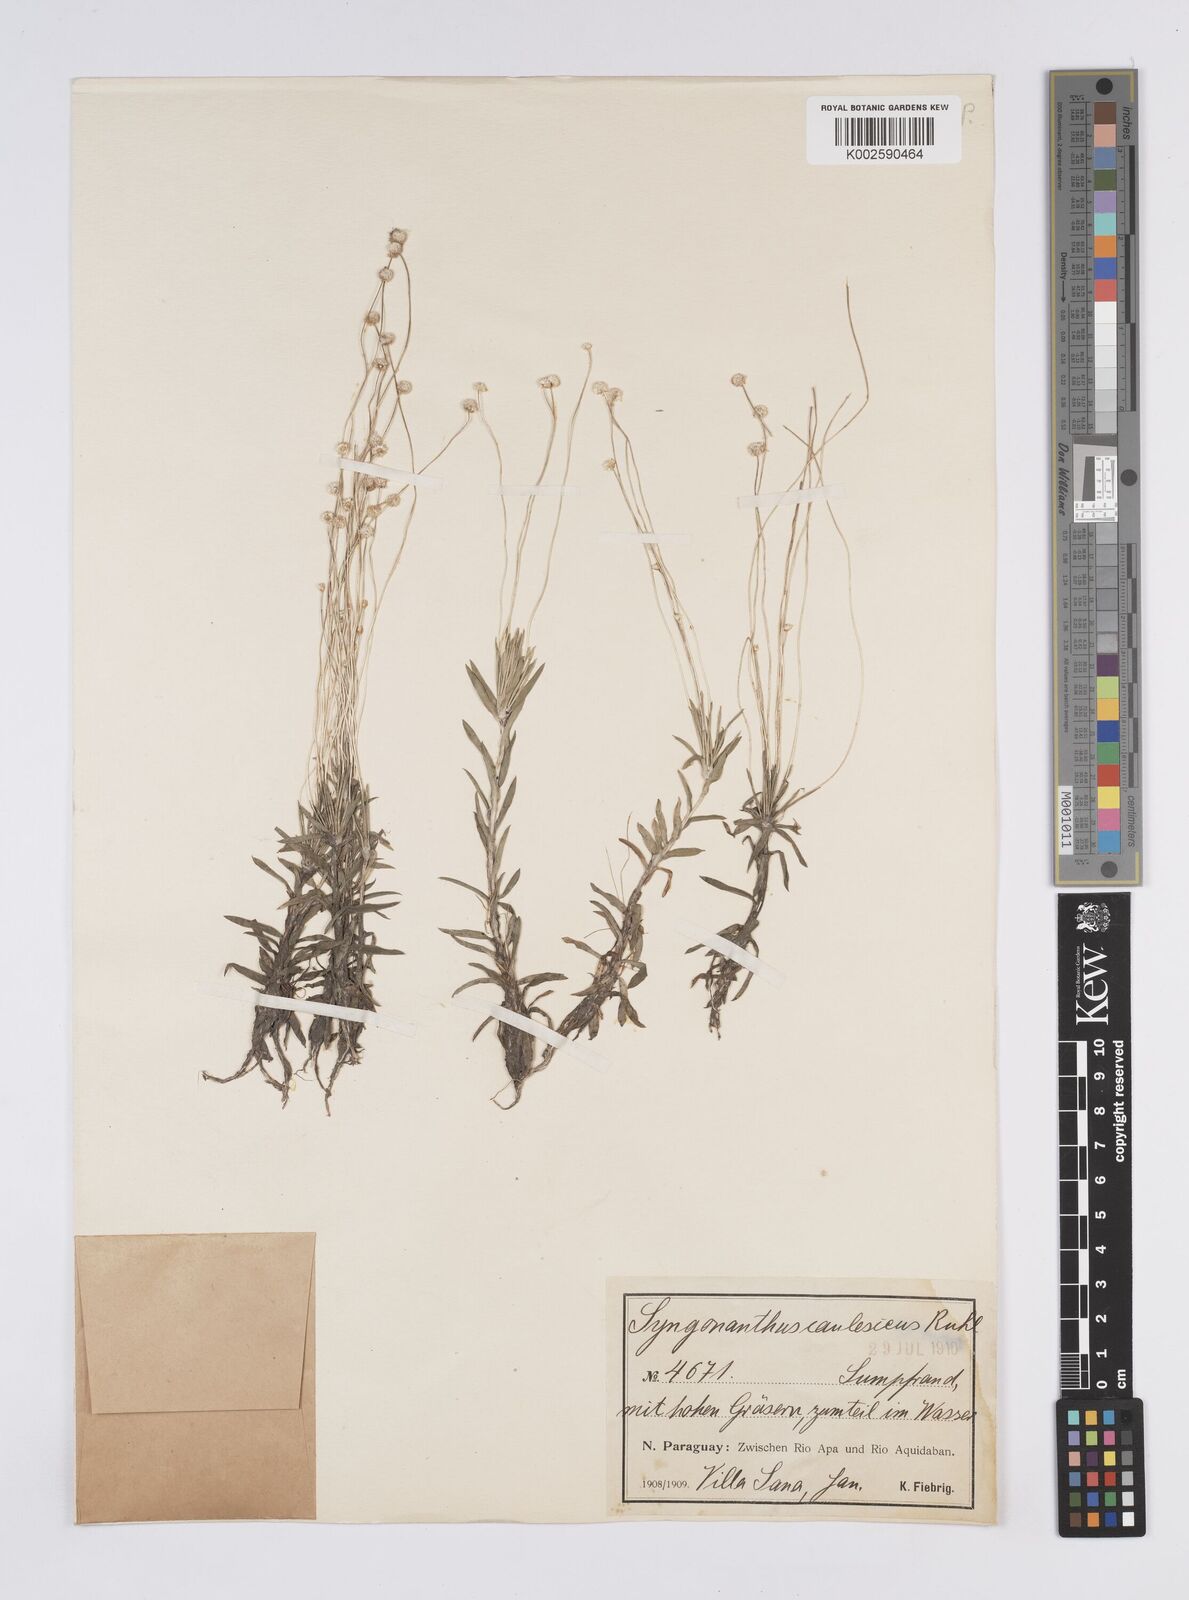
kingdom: Plantae
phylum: Tracheophyta
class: Liliopsida
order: Poales
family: Eriocaulaceae
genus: Syngonanthus
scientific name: Syngonanthus caulescens
